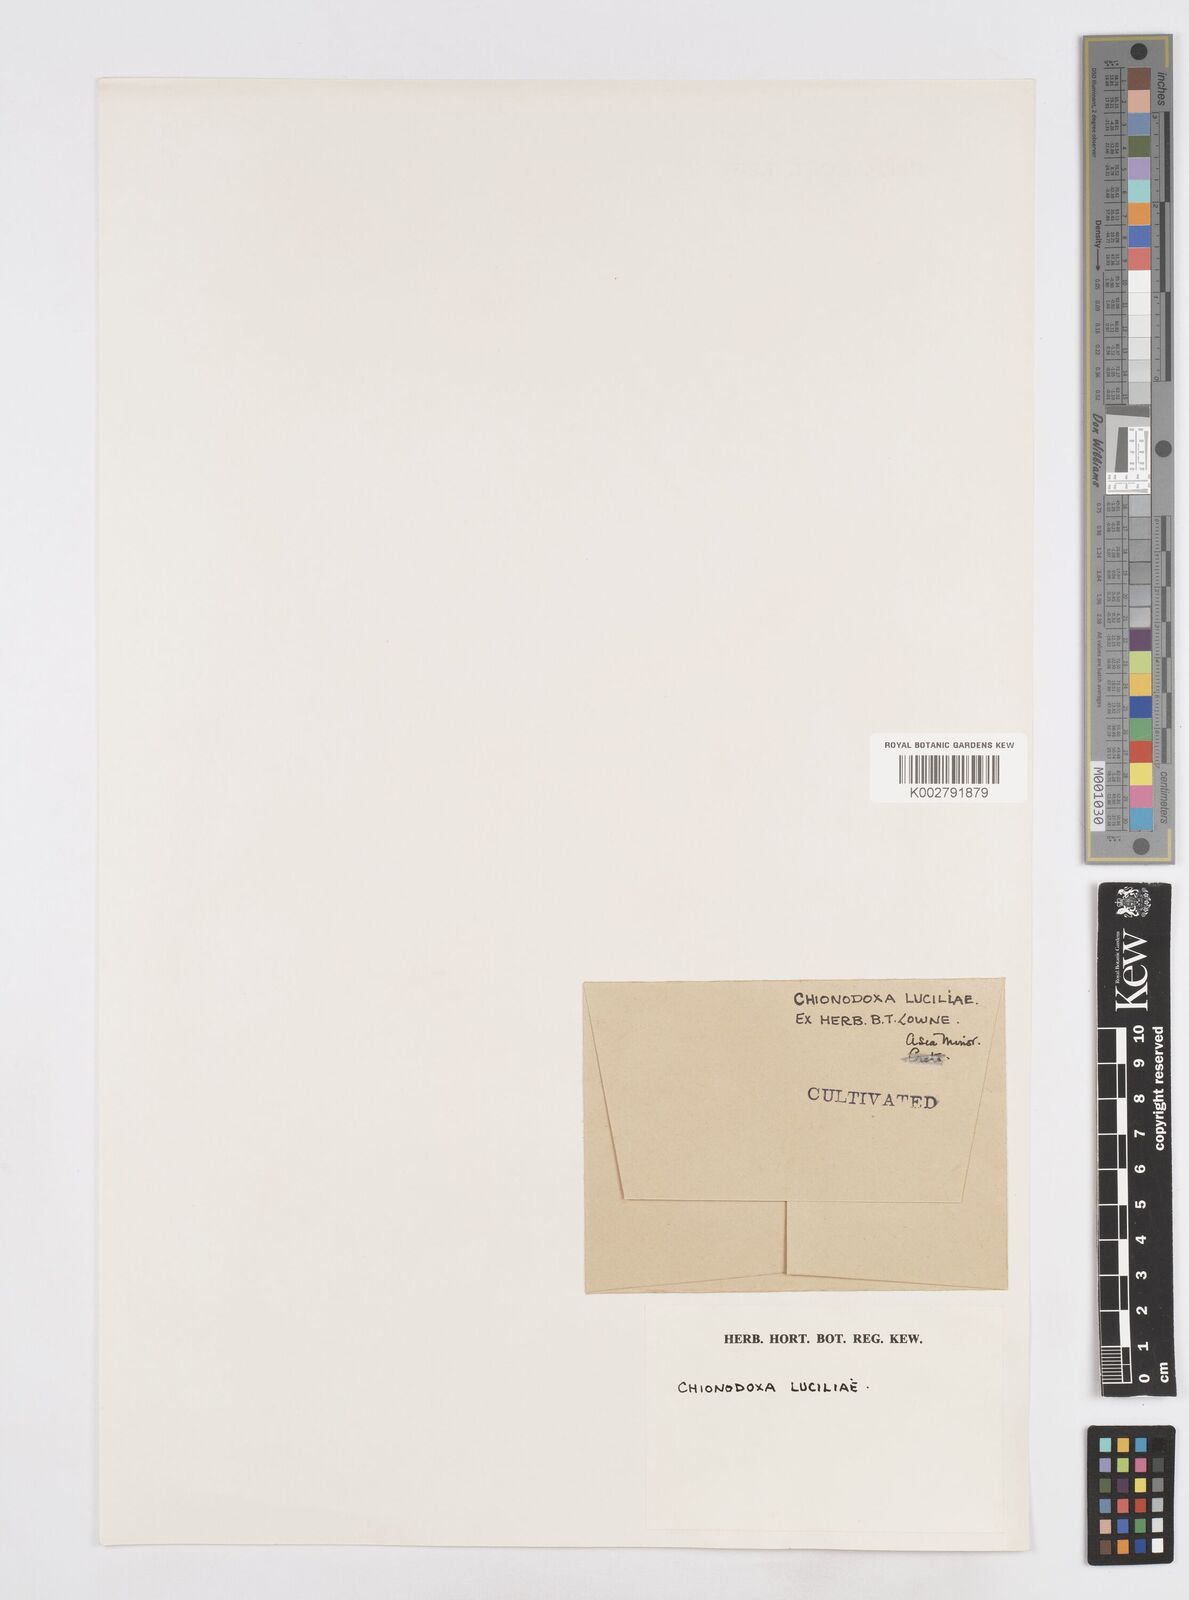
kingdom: Plantae
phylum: Tracheophyta
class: Liliopsida
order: Asparagales
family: Asparagaceae
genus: Scilla
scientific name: Scilla
